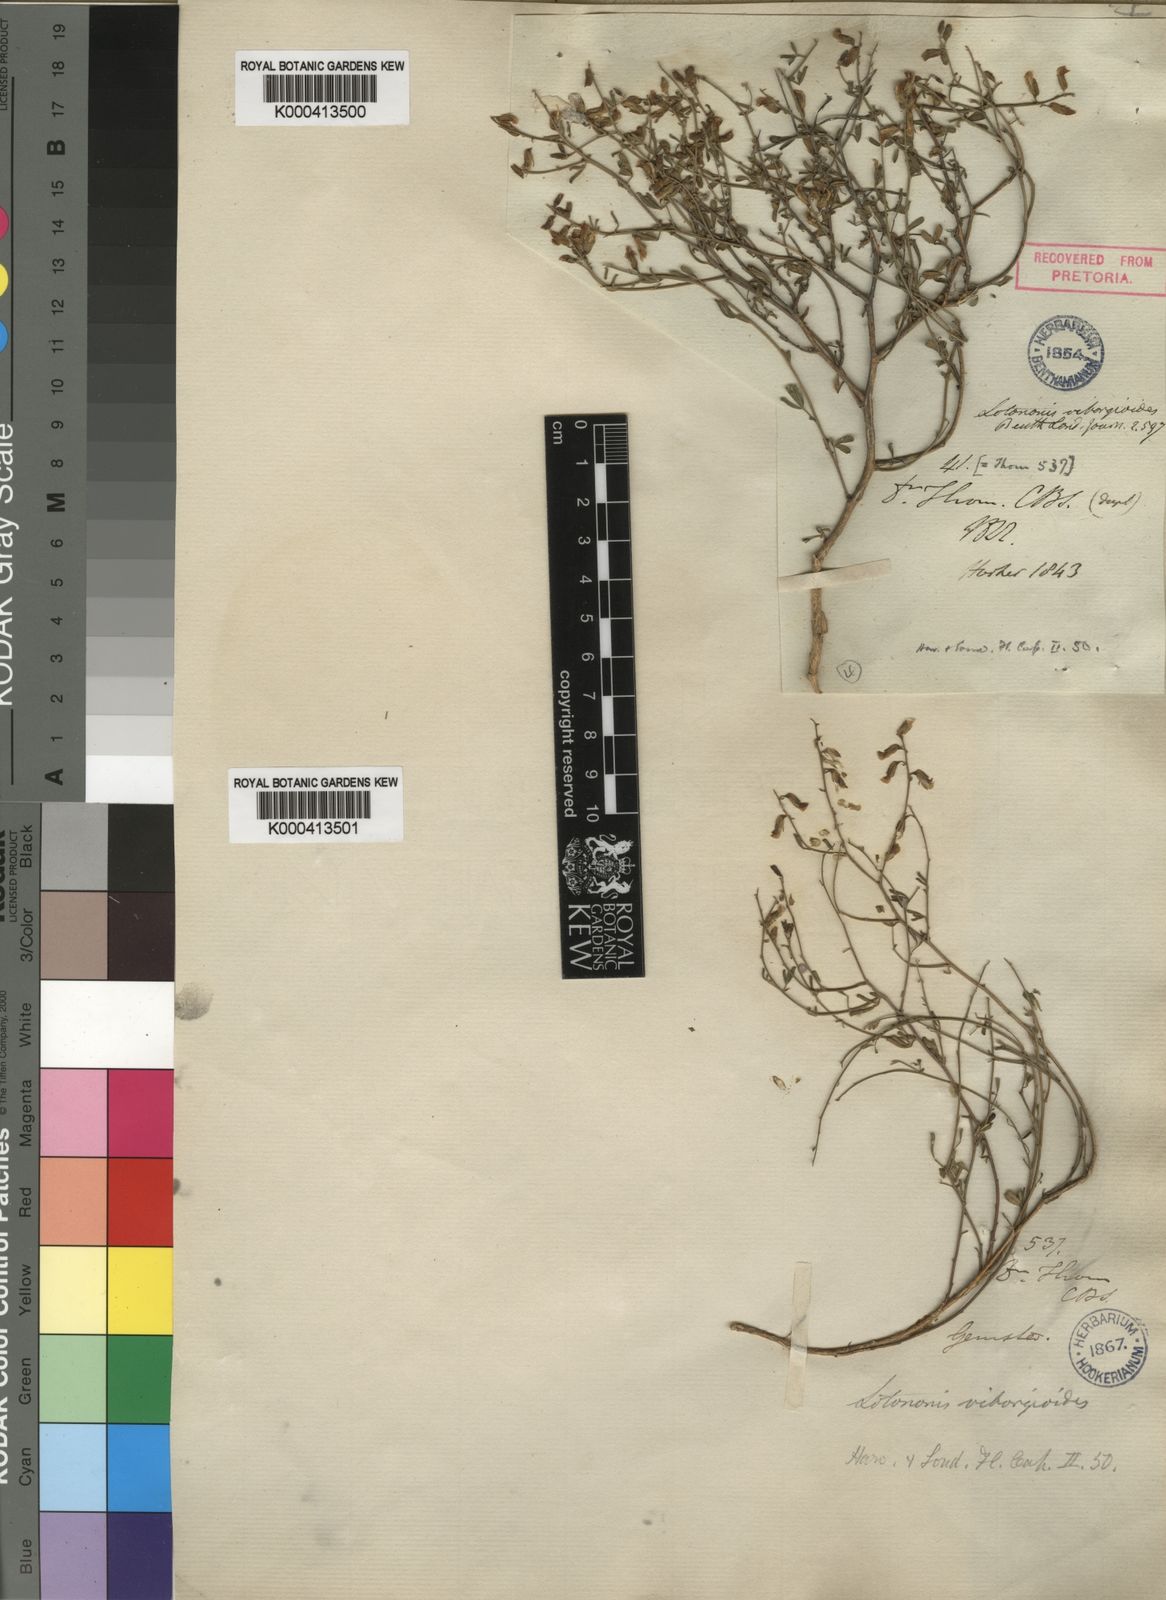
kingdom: Plantae
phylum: Tracheophyta
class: Magnoliopsida
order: Fabales
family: Fabaceae
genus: Lotononis
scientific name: Lotononis viborgioides
